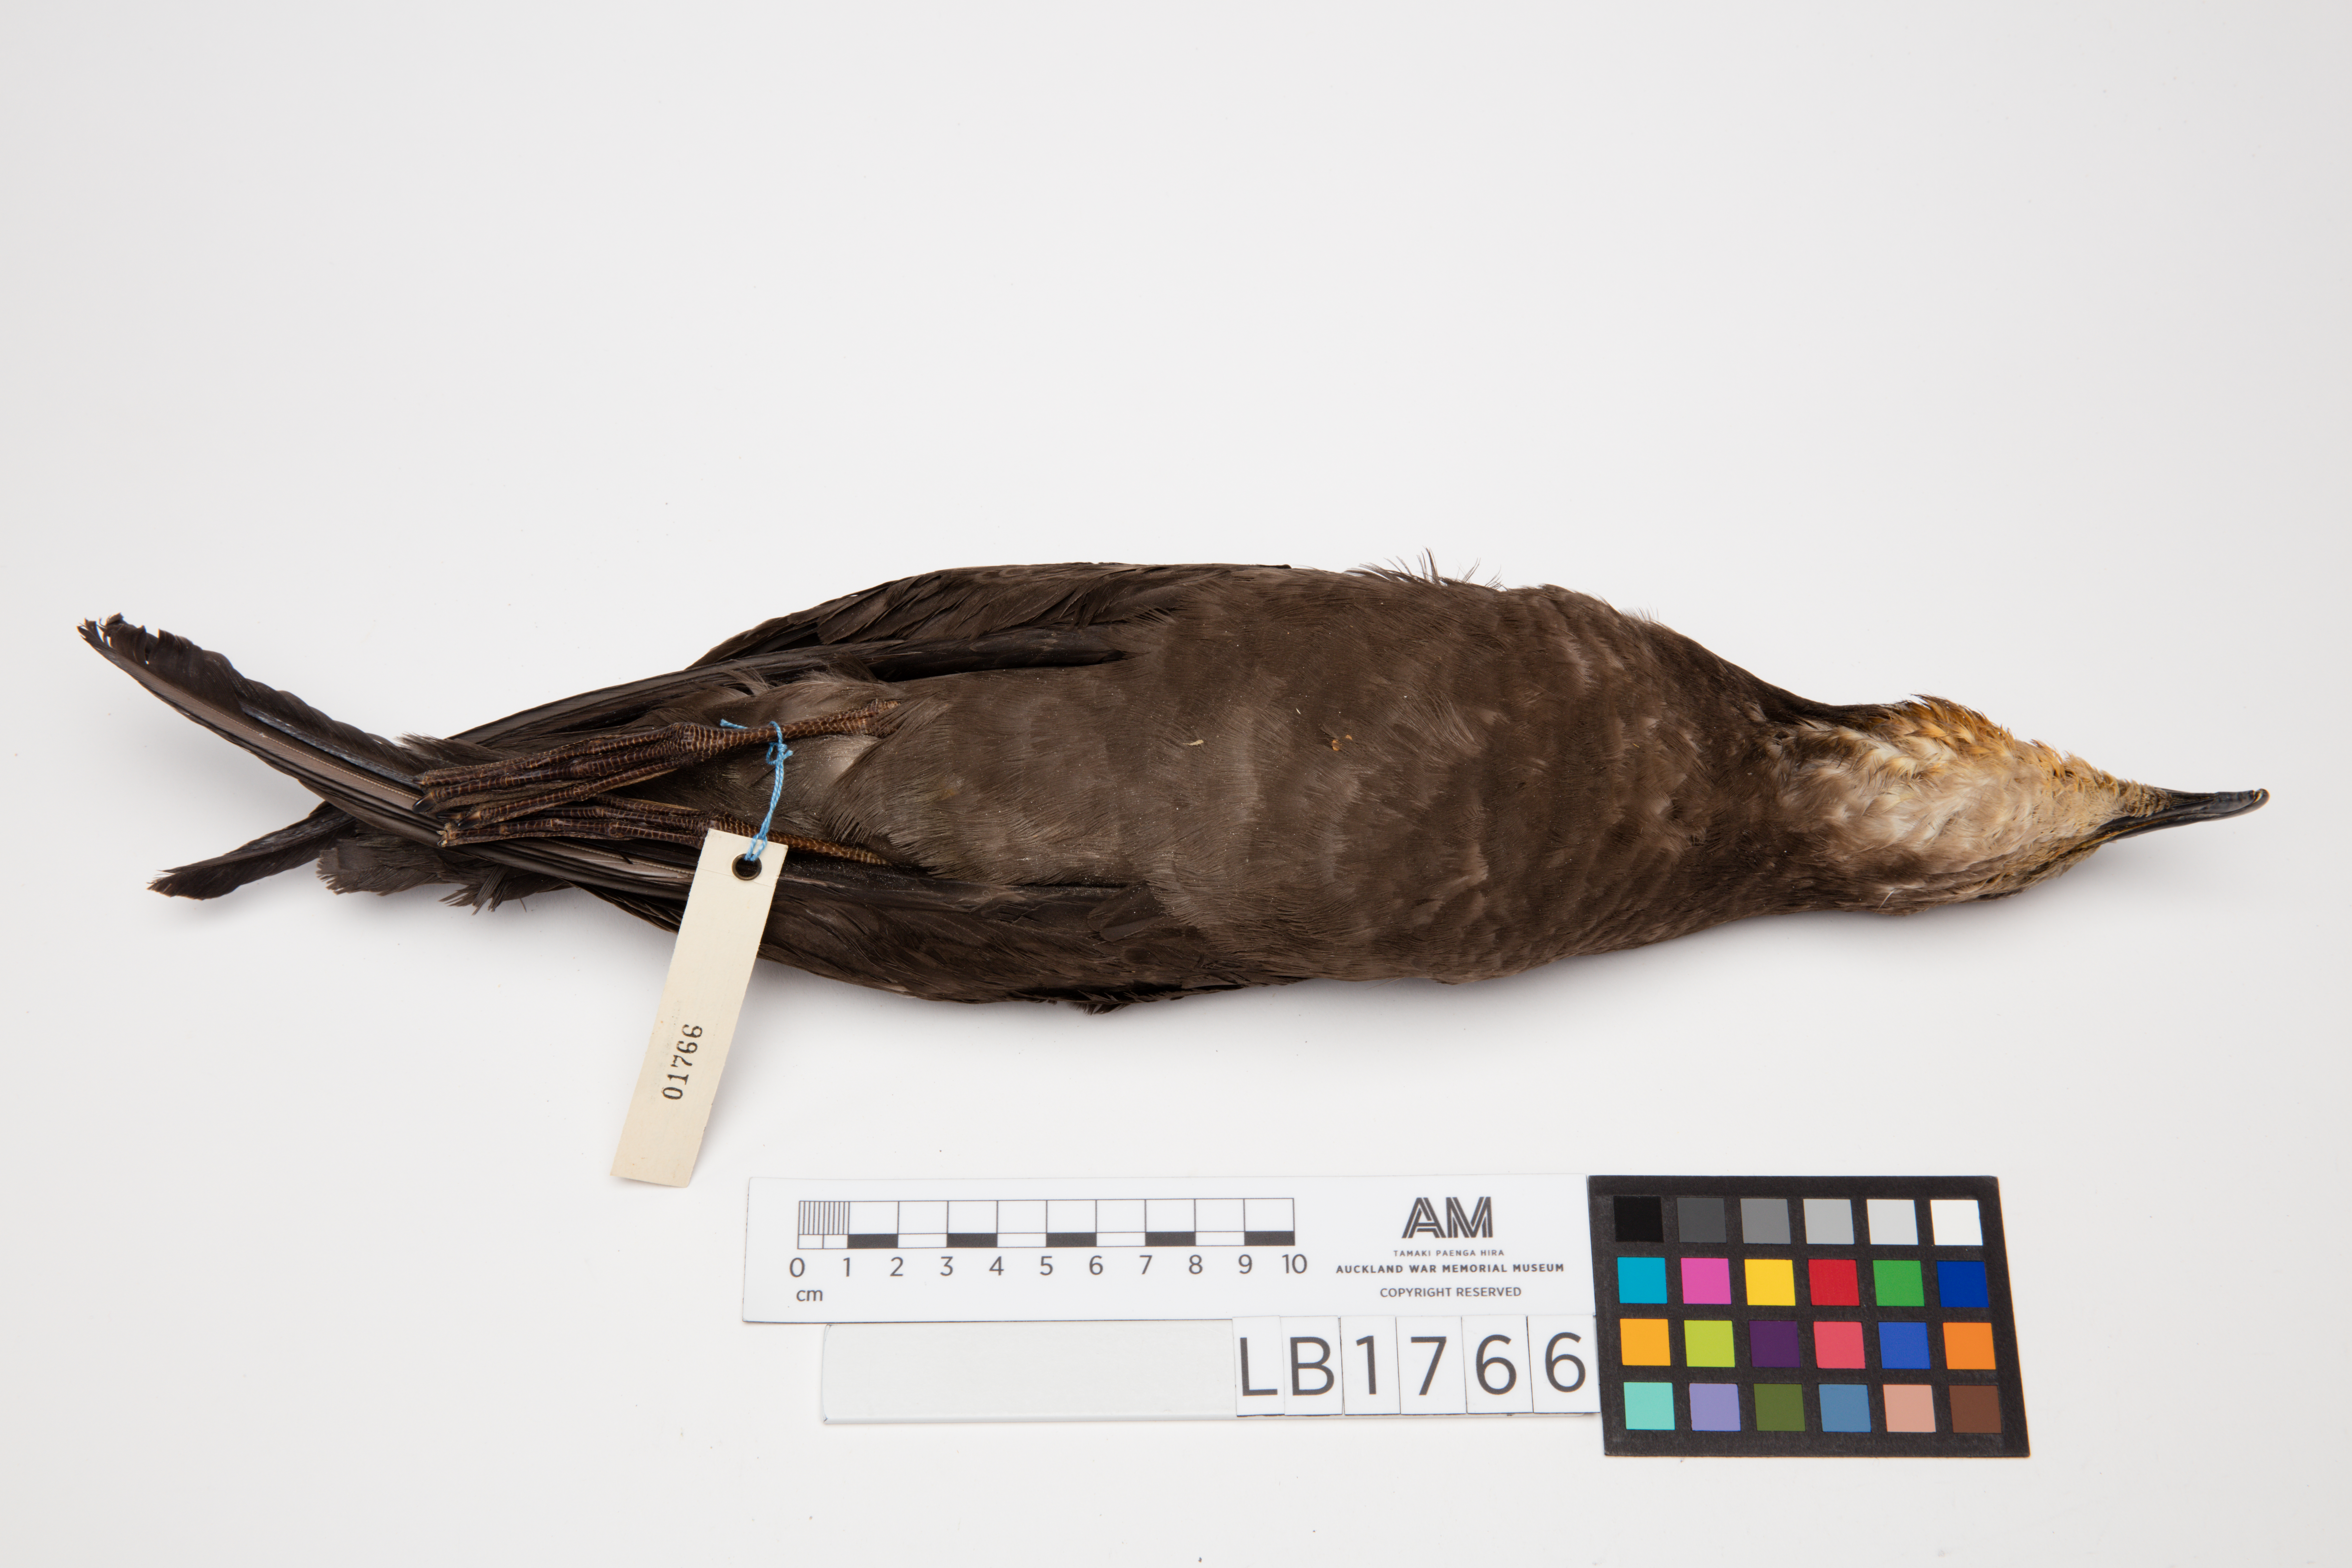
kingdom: Animalia
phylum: Chordata
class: Aves
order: Procellariiformes
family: Procellariidae
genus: Pterodroma
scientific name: Pterodroma macroptera
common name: Great-winged petrel
